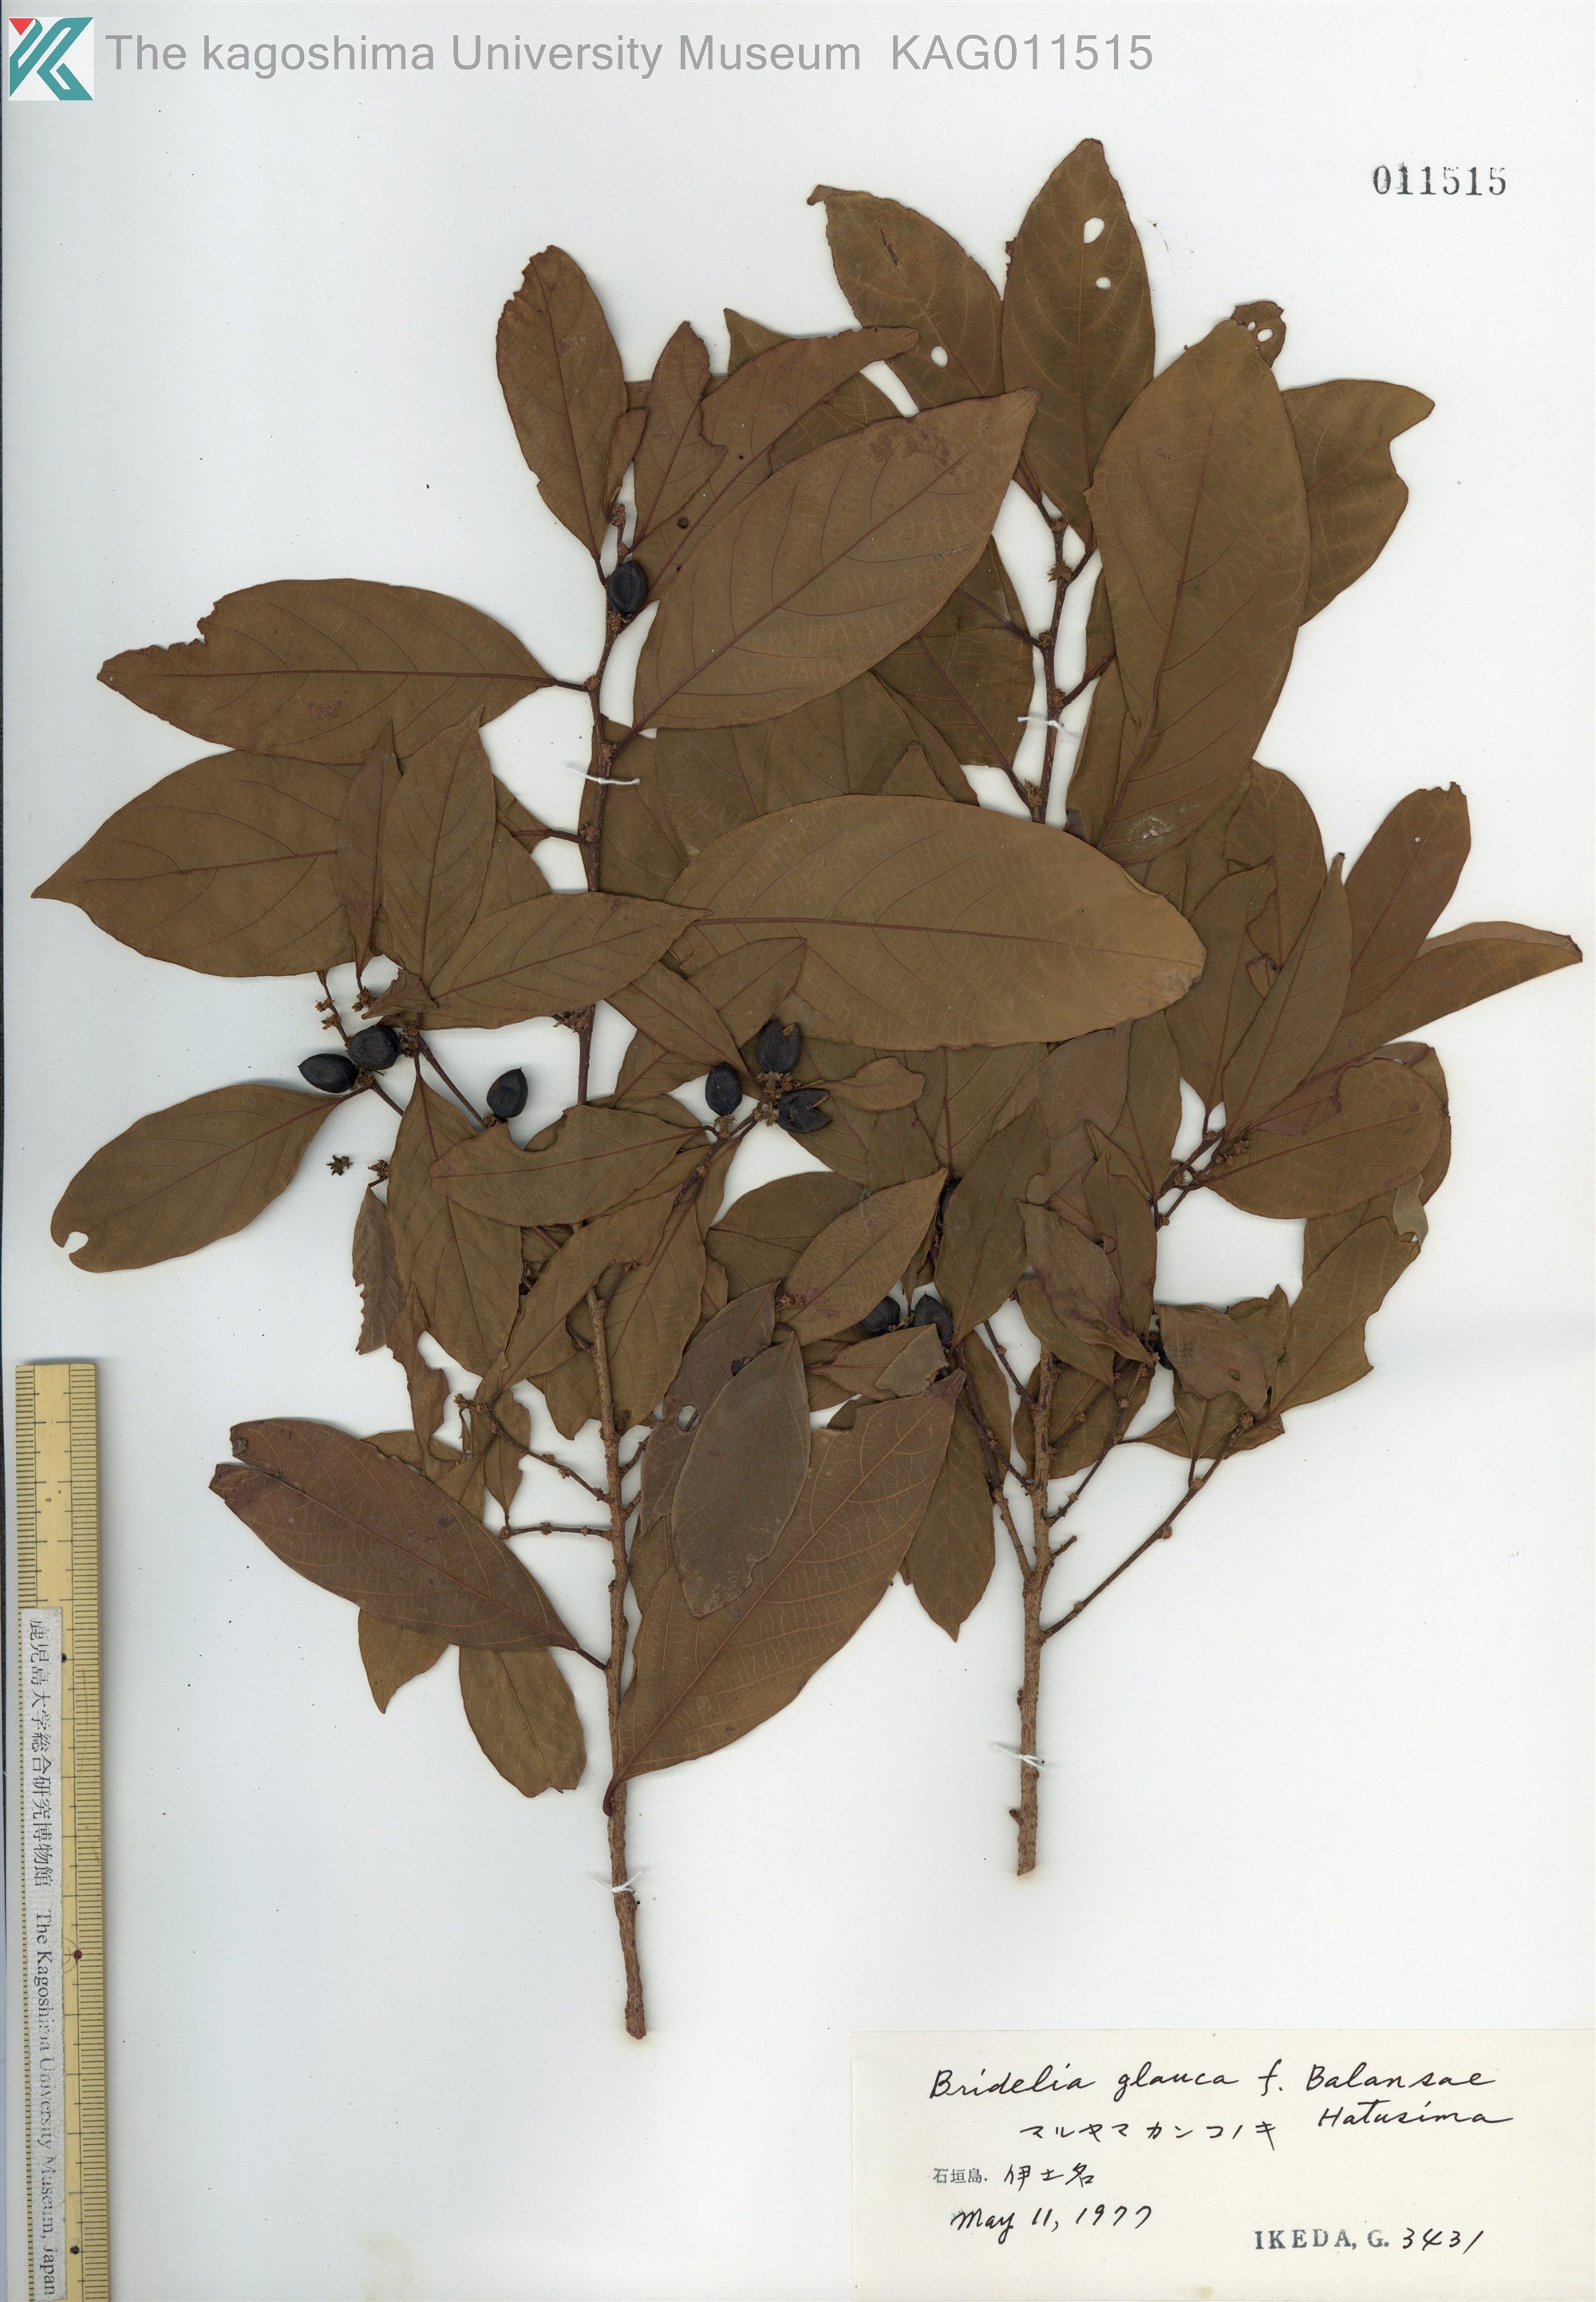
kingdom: Plantae
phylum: Tracheophyta
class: Magnoliopsida
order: Malpighiales
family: Phyllanthaceae
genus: Bridelia
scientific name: Bridelia balansae
